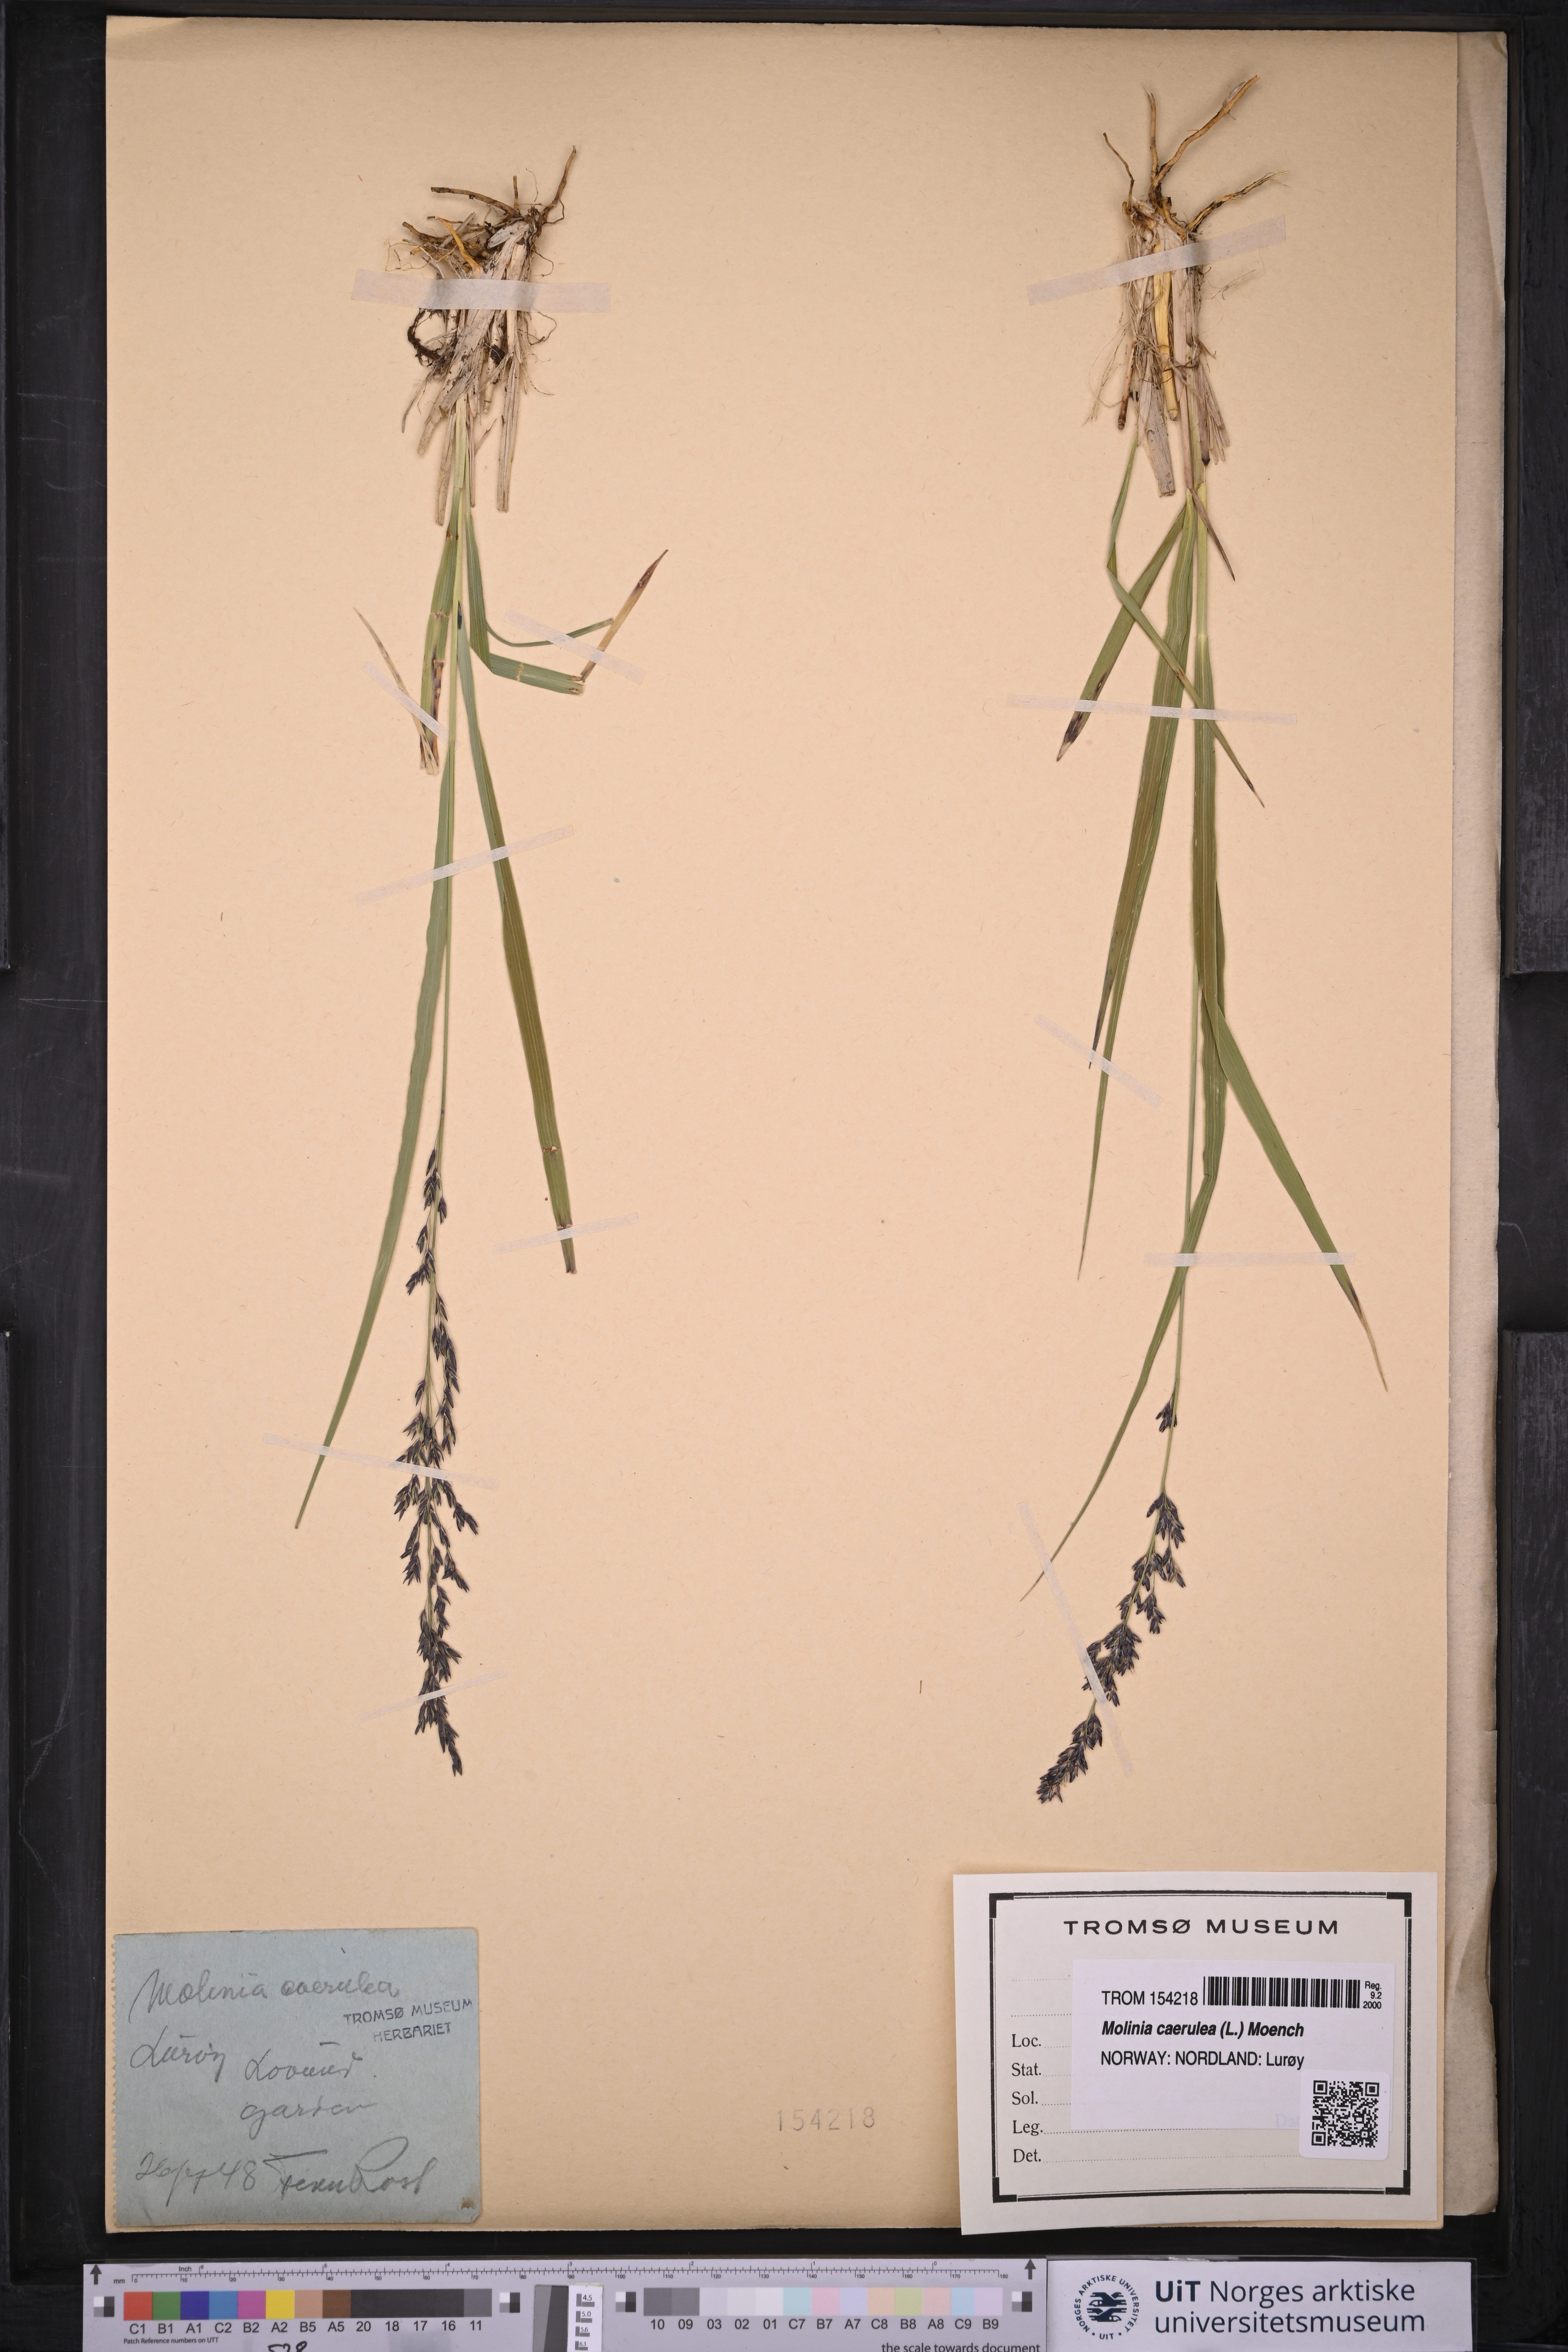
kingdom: Plantae
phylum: Tracheophyta
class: Liliopsida
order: Poales
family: Poaceae
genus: Molinia
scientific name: Molinia caerulea
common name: Purple moor-grass
